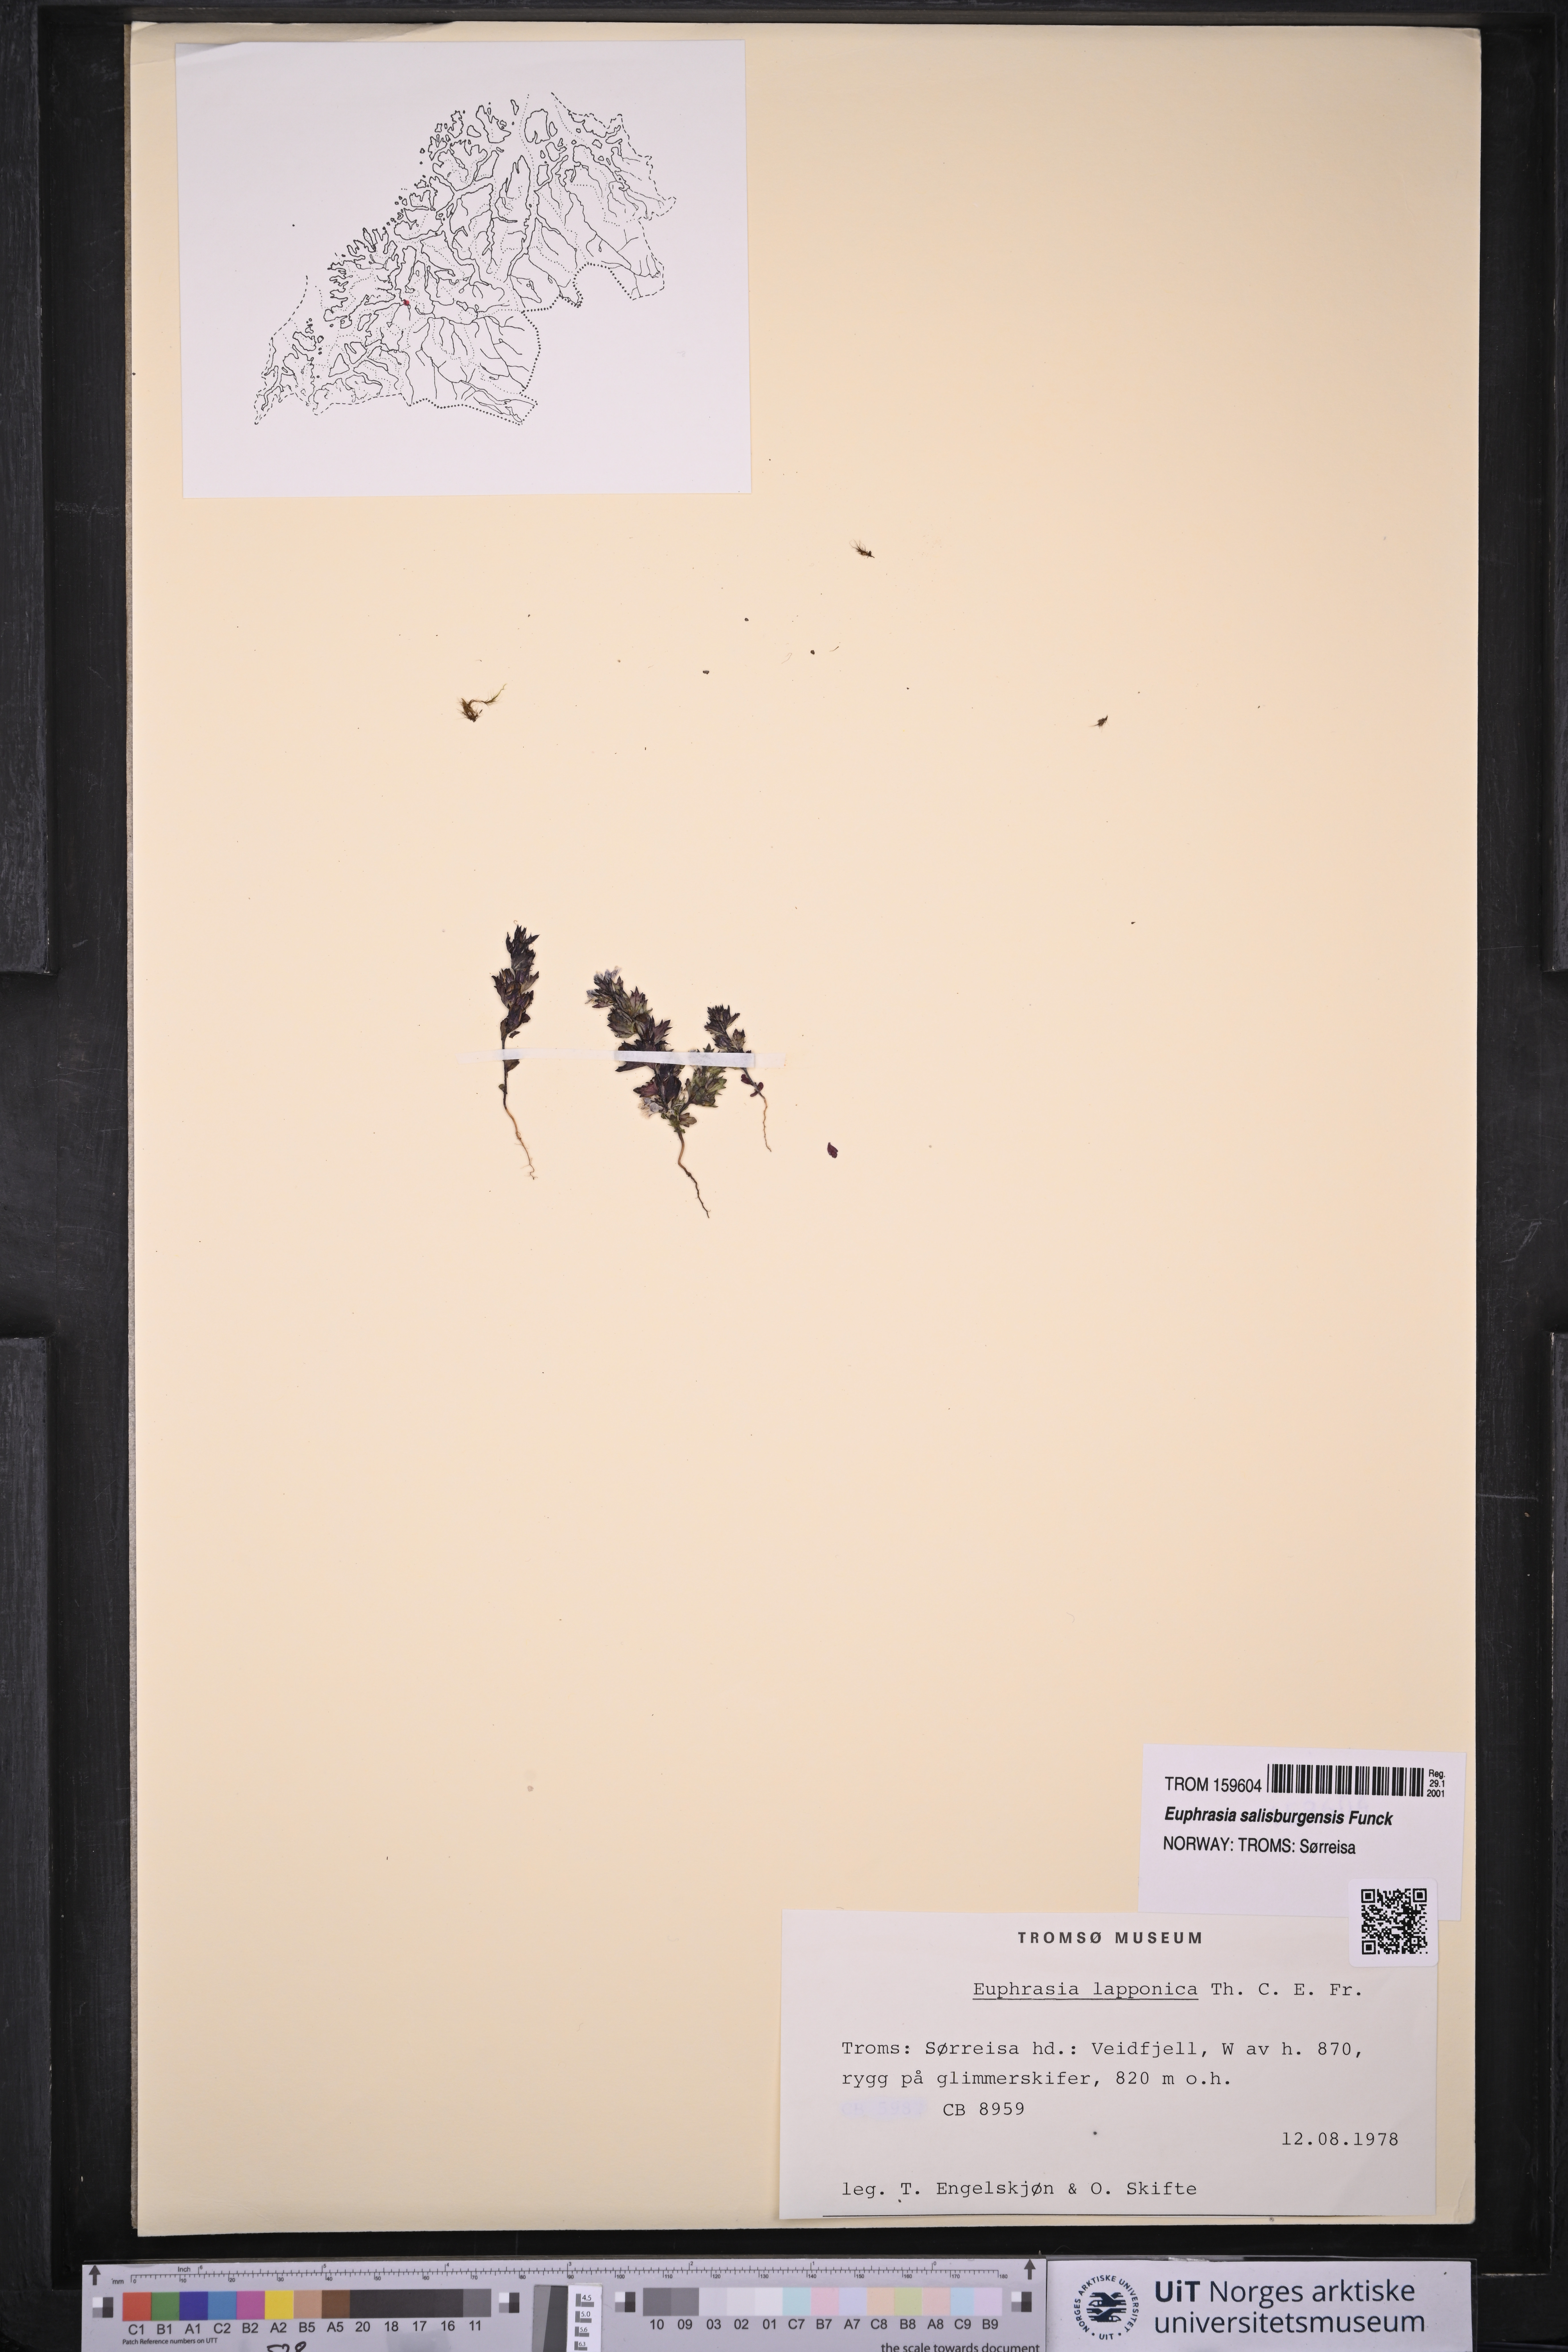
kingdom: Plantae
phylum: Tracheophyta
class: Magnoliopsida
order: Lamiales
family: Orobanchaceae
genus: Euphrasia
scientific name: Euphrasia salisburgensis
